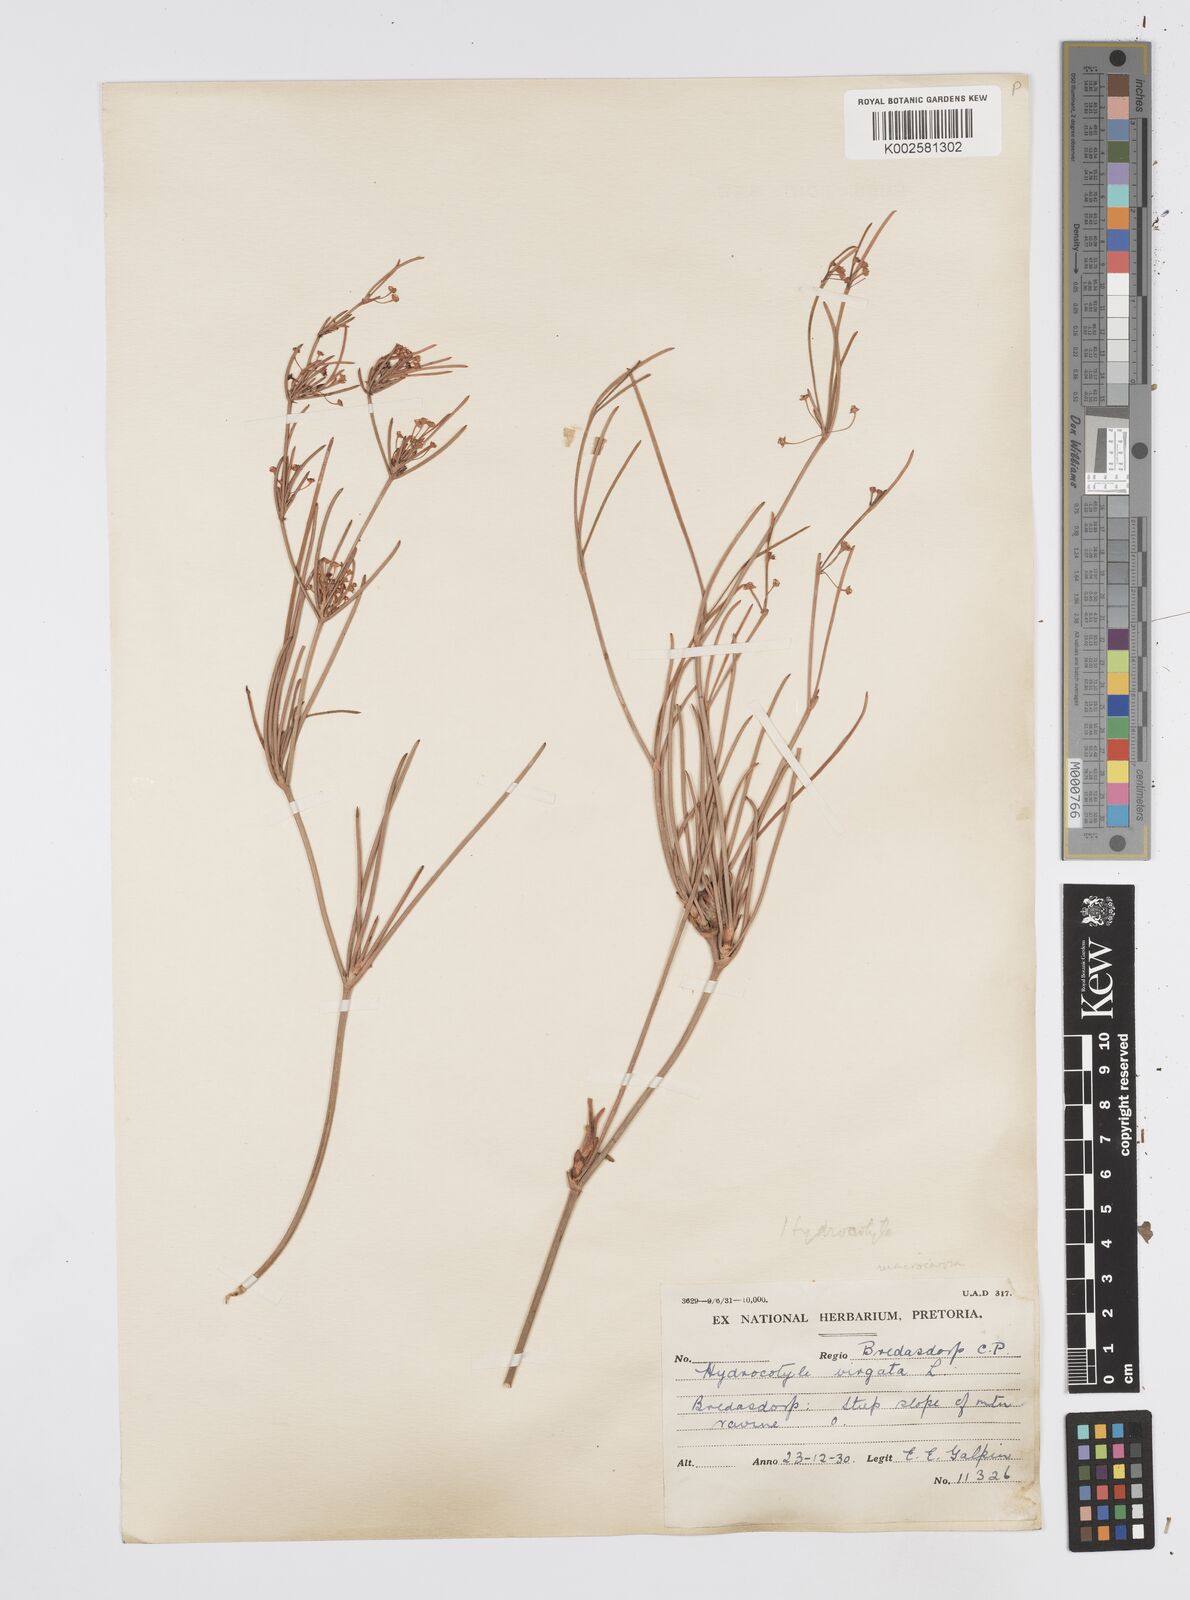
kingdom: Plantae
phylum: Tracheophyta
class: Magnoliopsida
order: Apiales
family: Apiaceae
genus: Centella
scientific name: Centella macrocarpa
